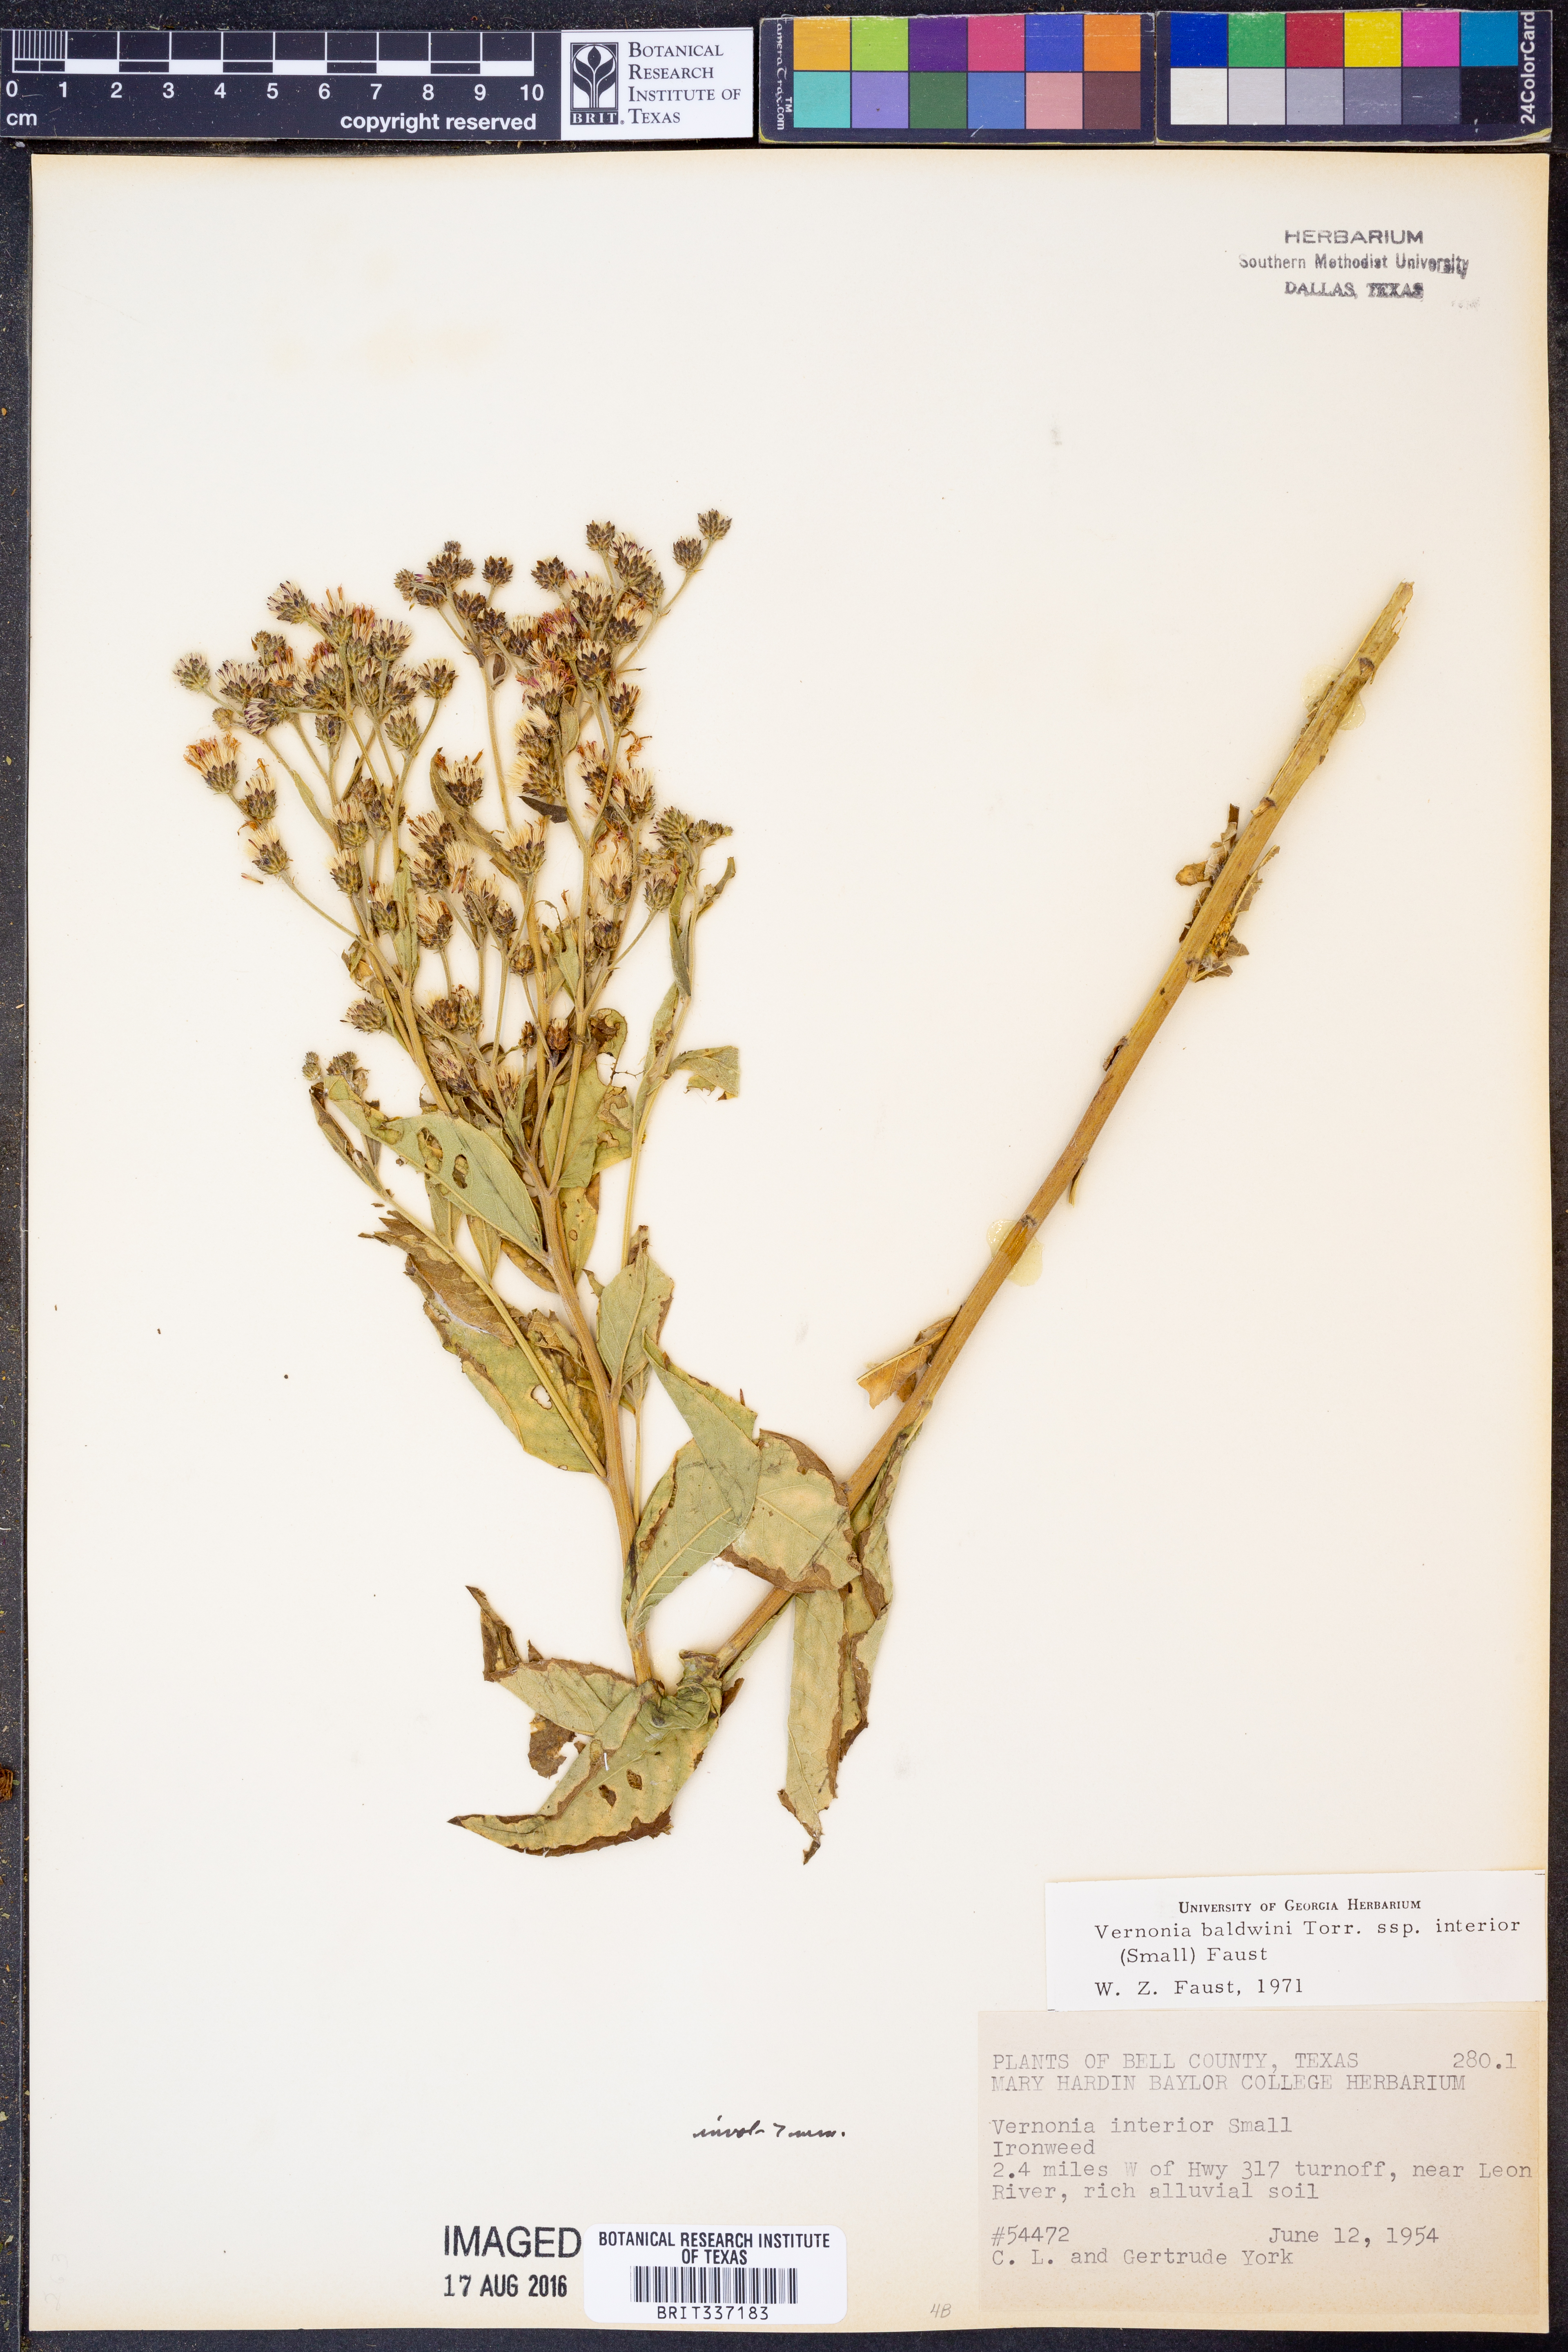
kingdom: Plantae
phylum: Tracheophyta
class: Magnoliopsida
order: Asterales
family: Asteraceae
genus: Vernonia
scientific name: Vernonia baldwinii
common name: Western ironweed
